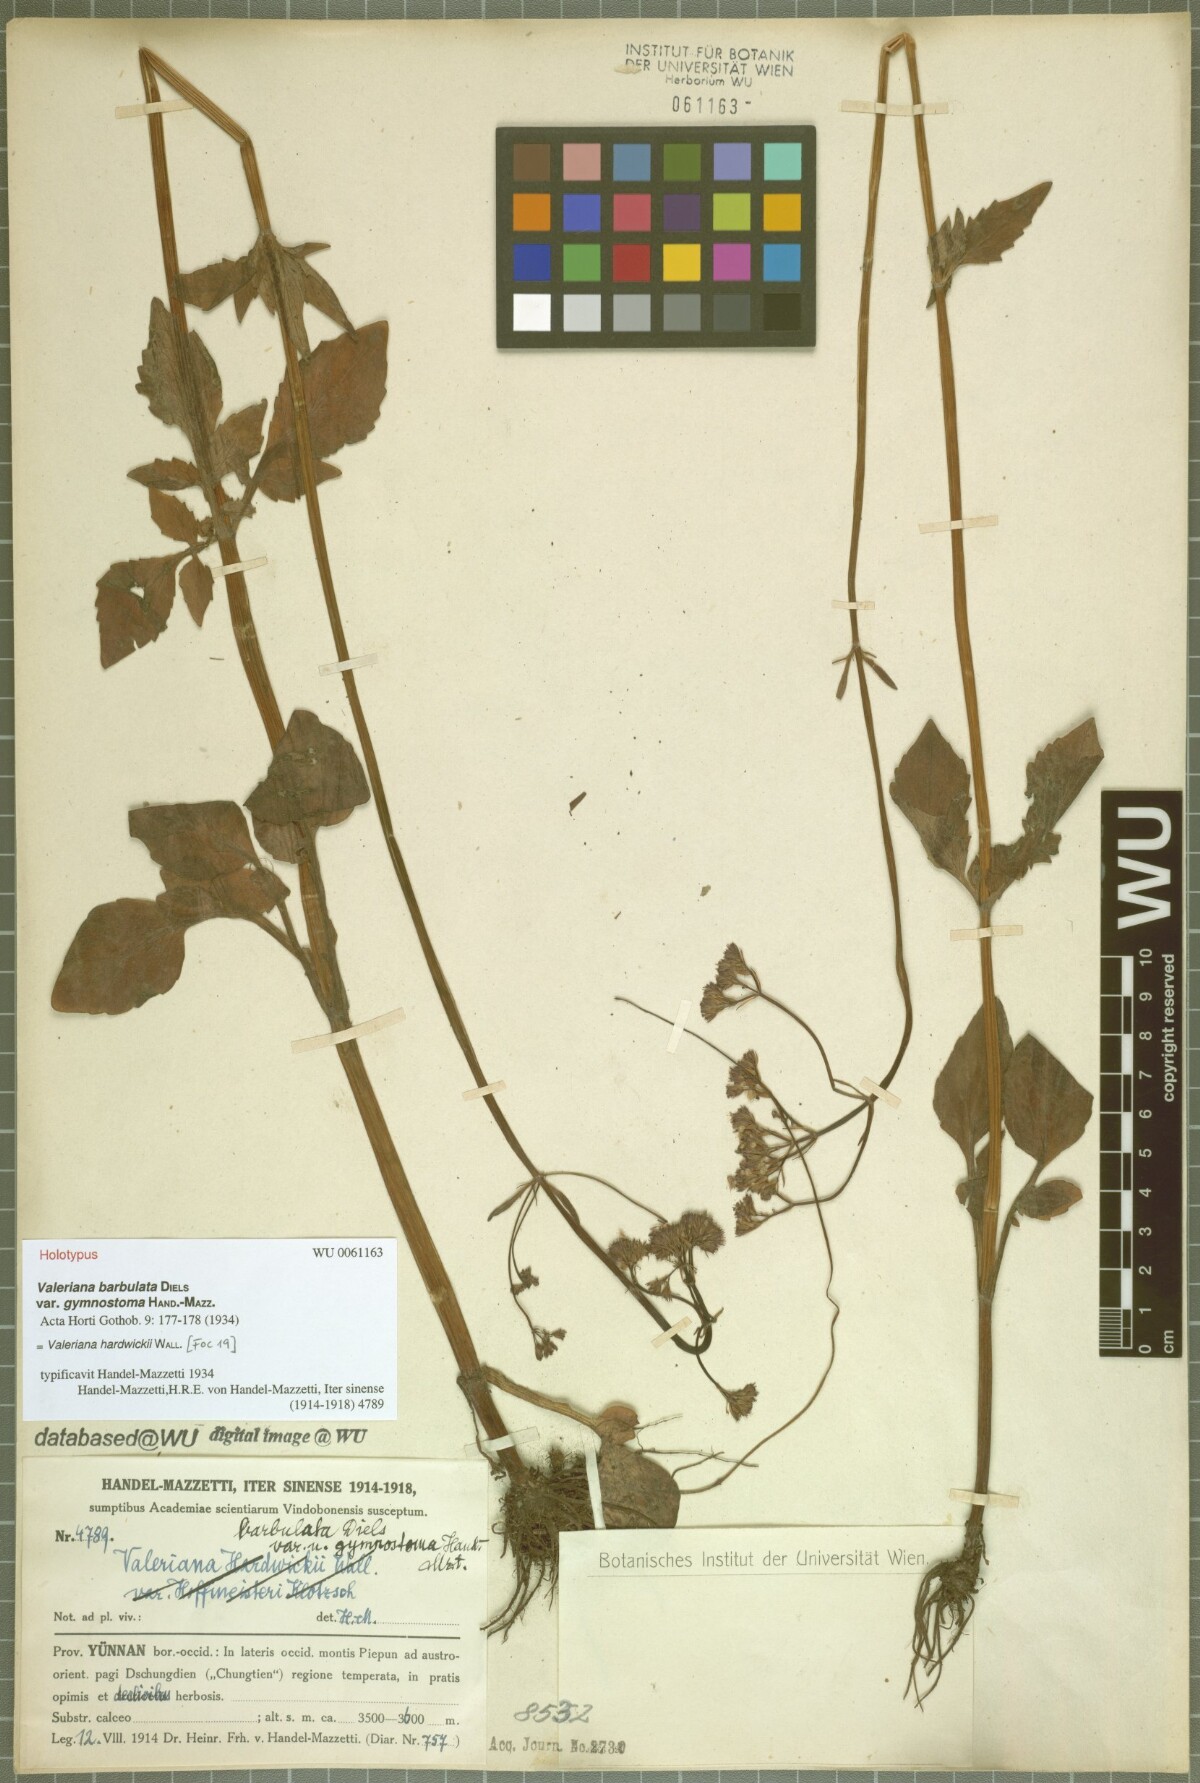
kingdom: Plantae
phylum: Tracheophyta
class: Magnoliopsida
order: Dipsacales
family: Caprifoliaceae
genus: Valeriana
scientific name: Valeriana hardwickei
